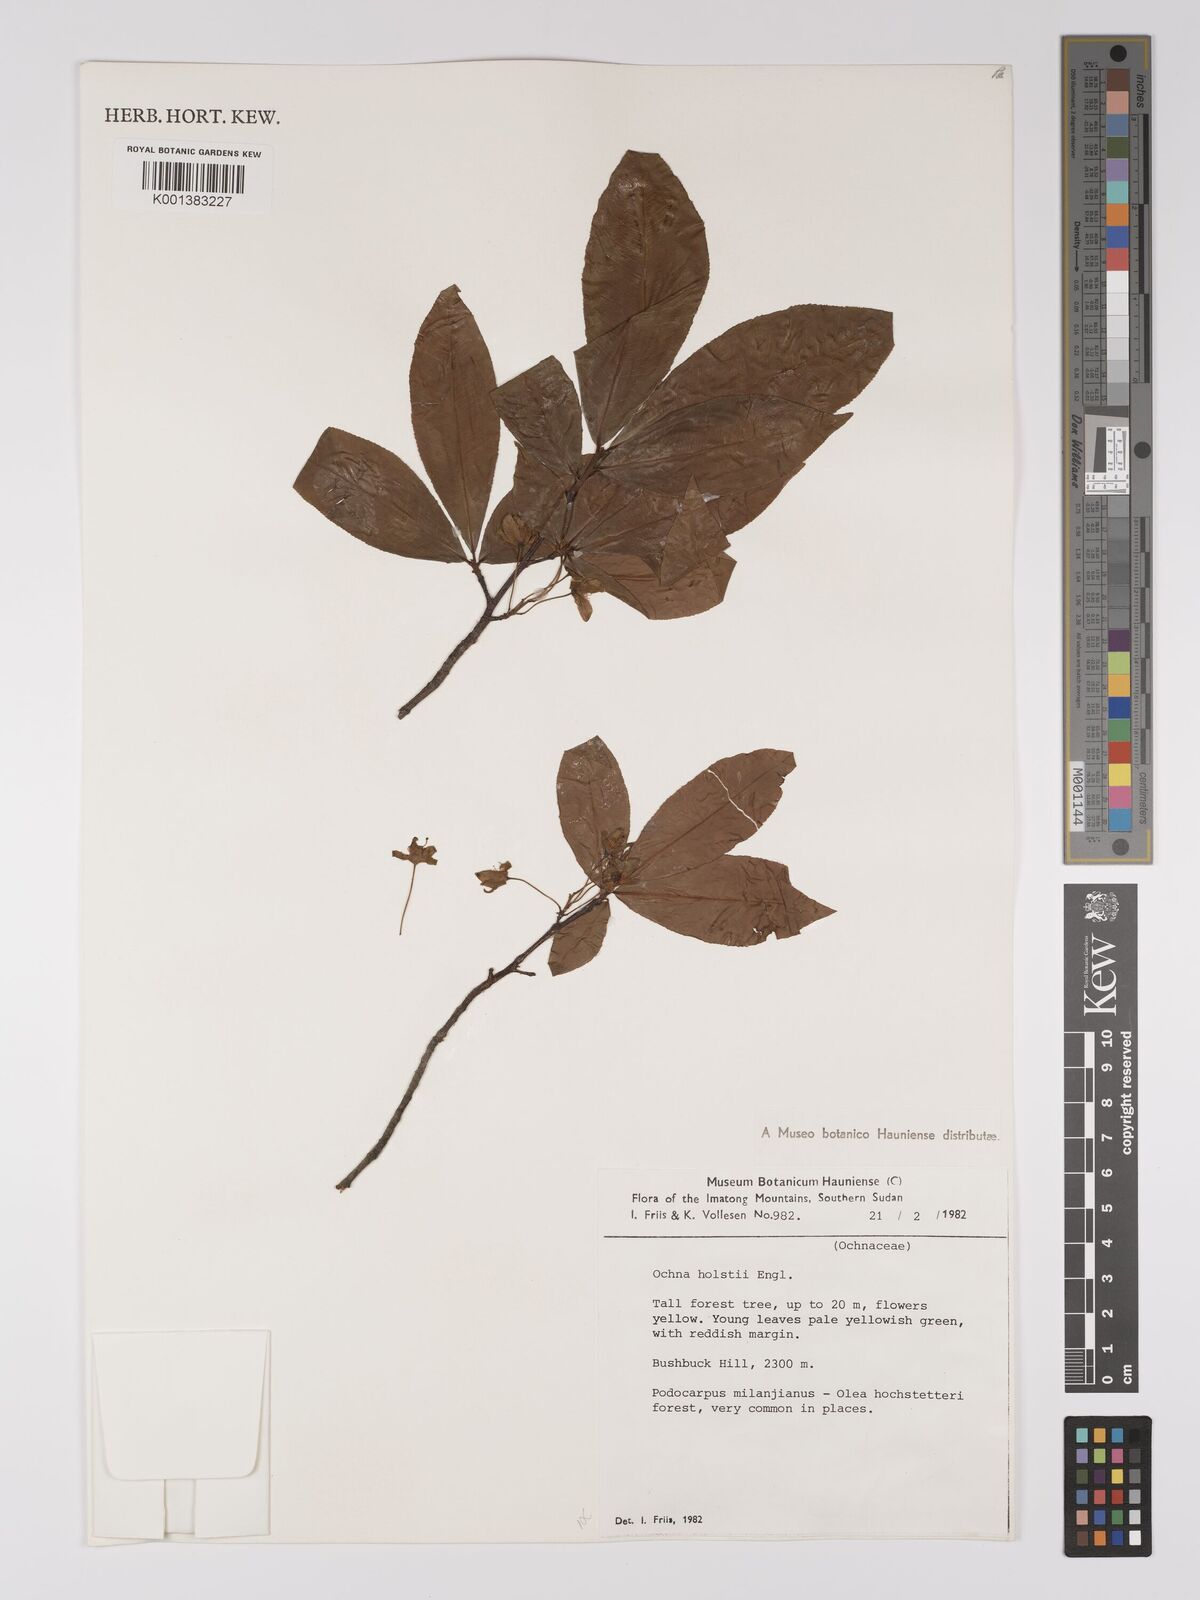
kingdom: Plantae
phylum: Tracheophyta
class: Magnoliopsida
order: Malpighiales
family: Ochnaceae
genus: Ochna
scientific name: Ochna holstii
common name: Red ironwood
